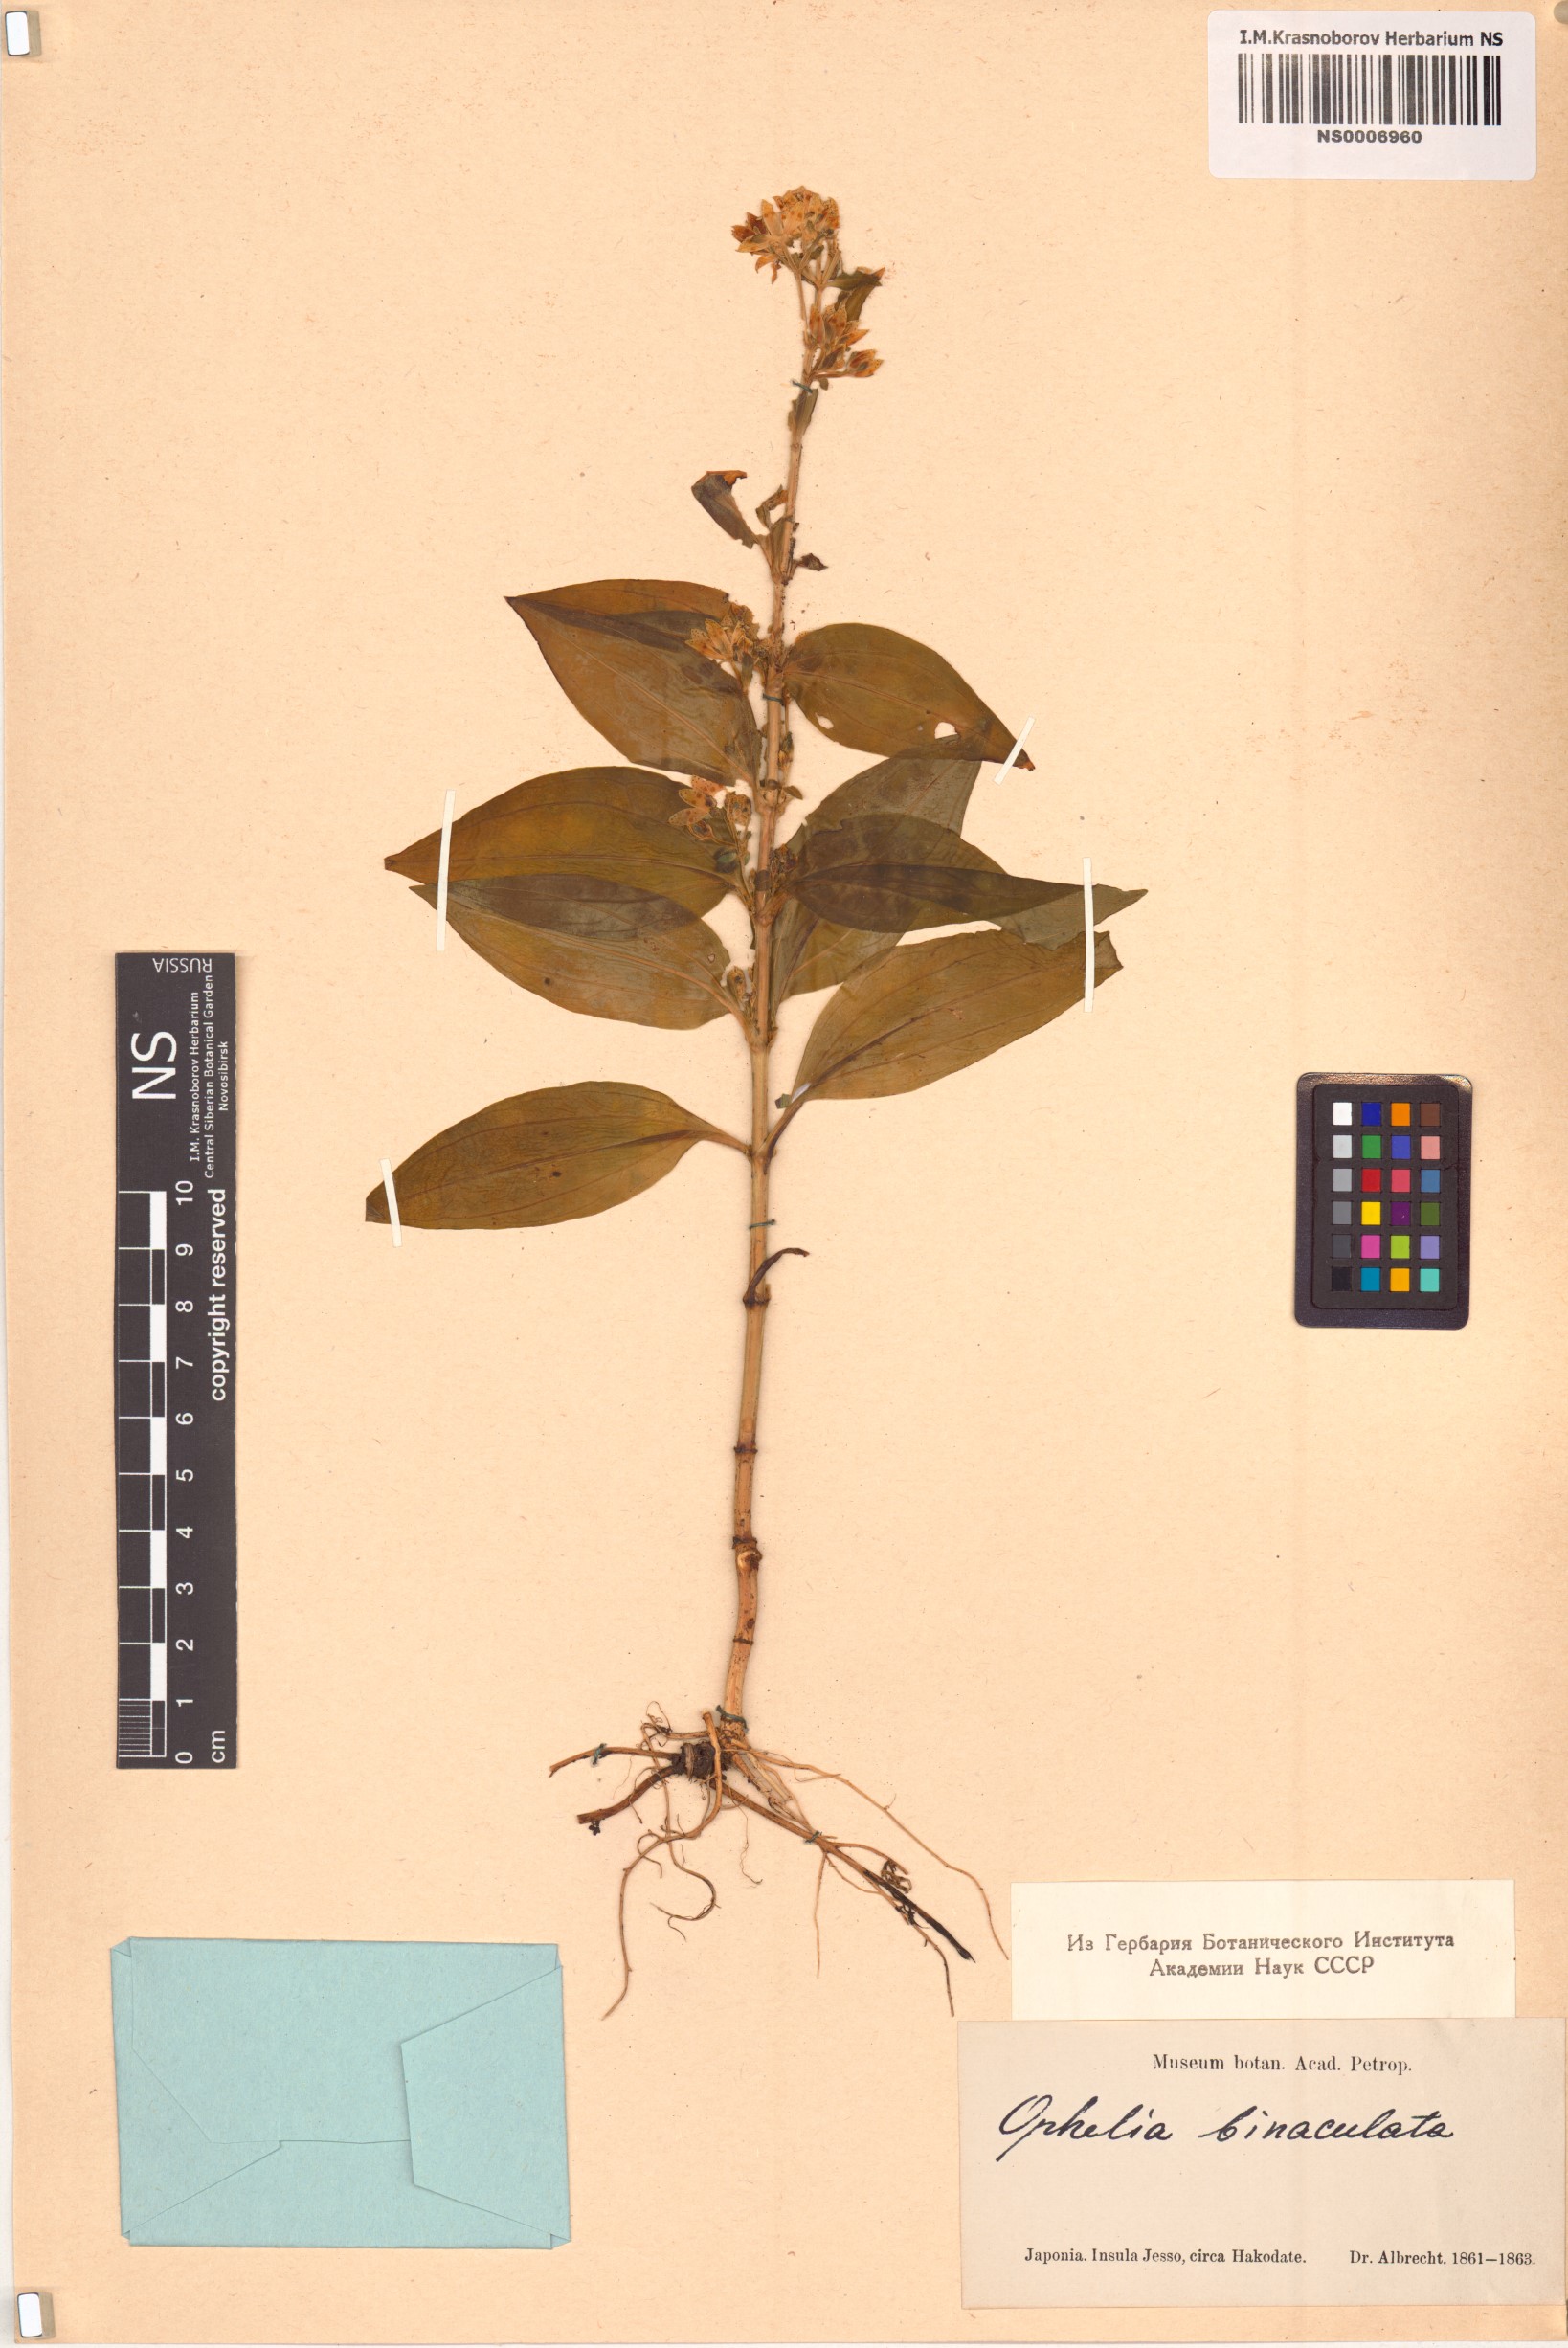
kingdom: Plantae
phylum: Tracheophyta
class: Magnoliopsida
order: Gentianales
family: Gentianaceae
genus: Swertia
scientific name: Swertia bimaculata
